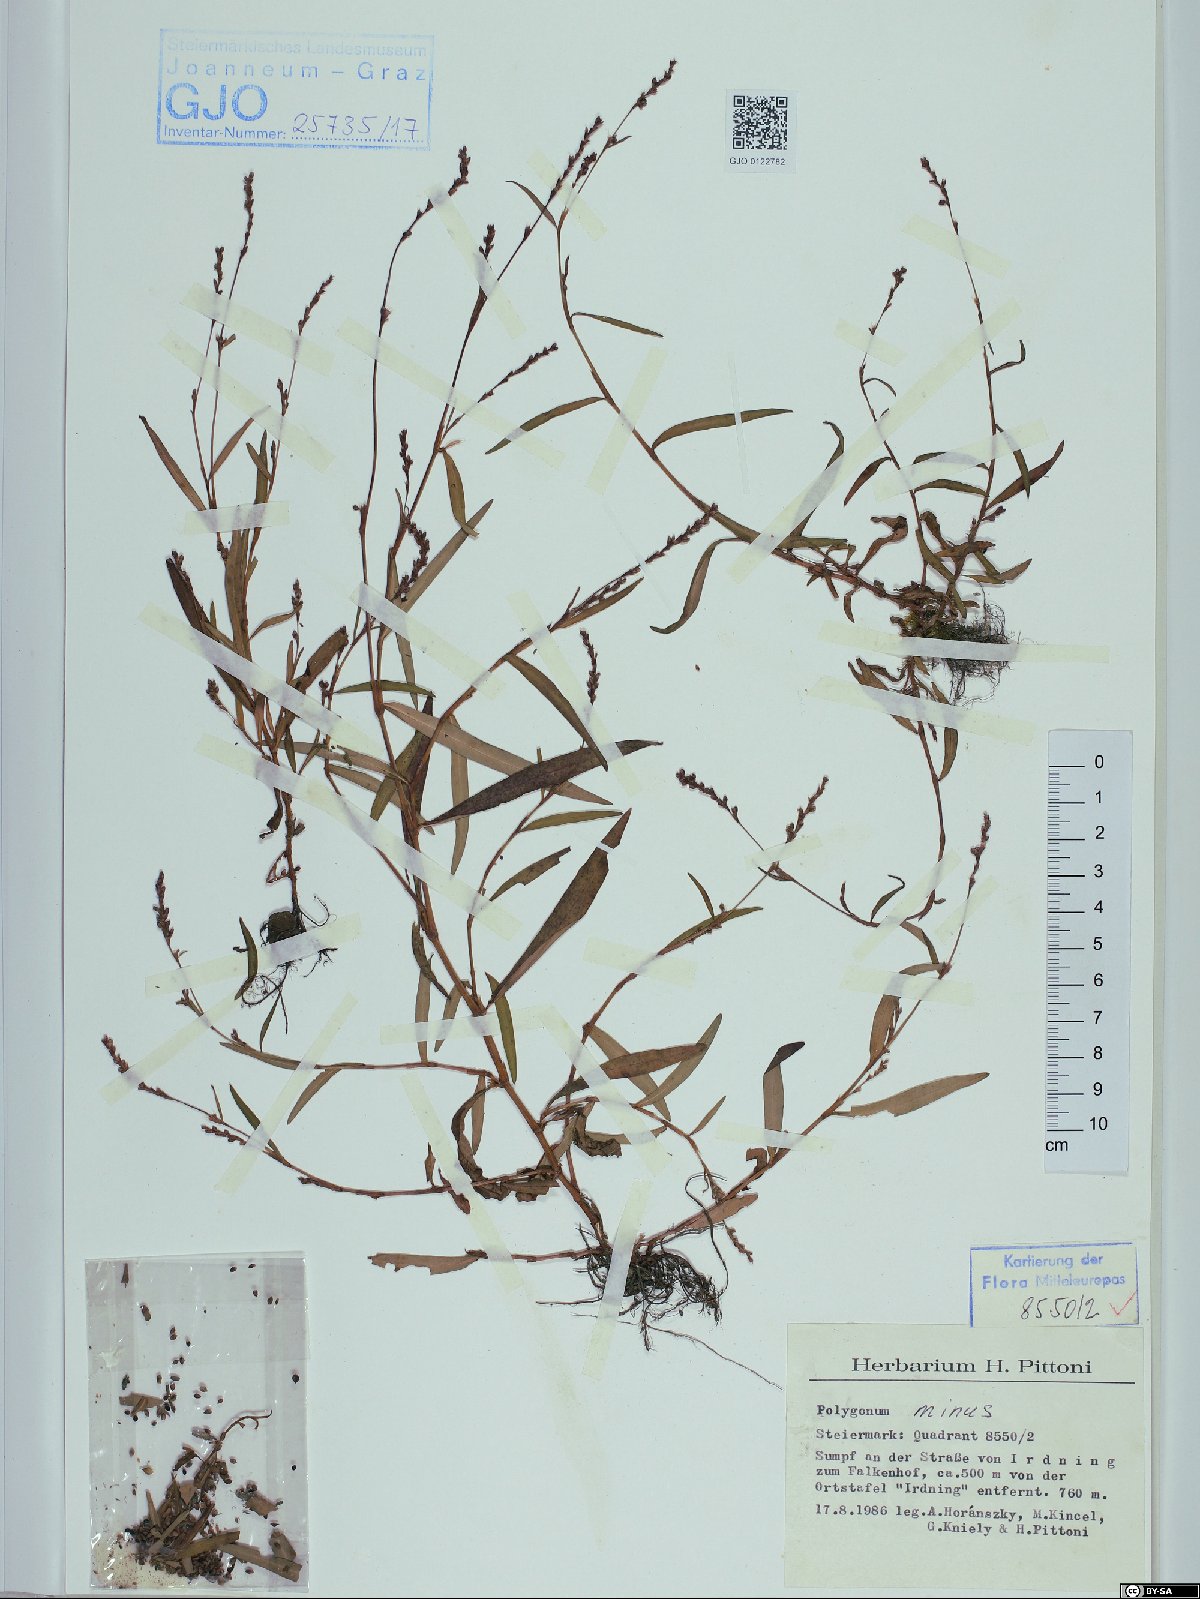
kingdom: Plantae
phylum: Tracheophyta
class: Magnoliopsida
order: Caryophyllales
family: Polygonaceae
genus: Persicaria
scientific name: Persicaria minor
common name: Small water-pepper
